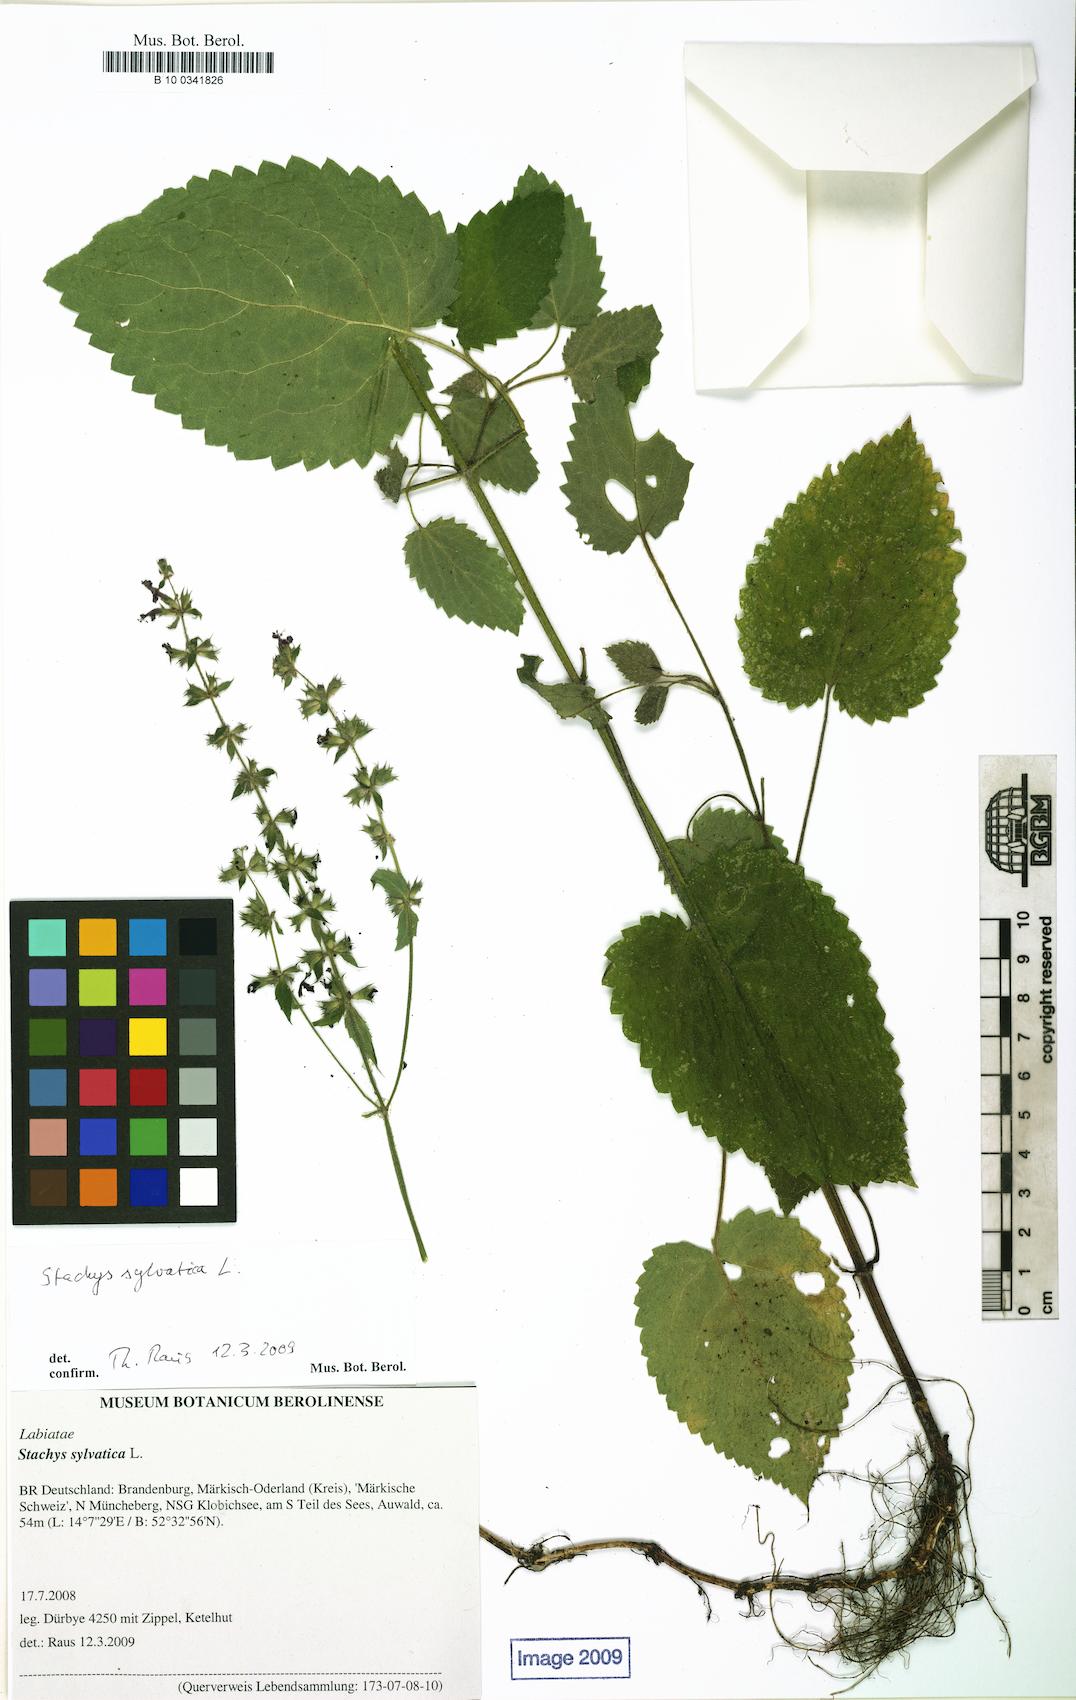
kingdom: Plantae
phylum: Tracheophyta
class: Magnoliopsida
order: Lamiales
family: Lamiaceae
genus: Stachys
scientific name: Stachys sylvatica
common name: Hedge woundwort
